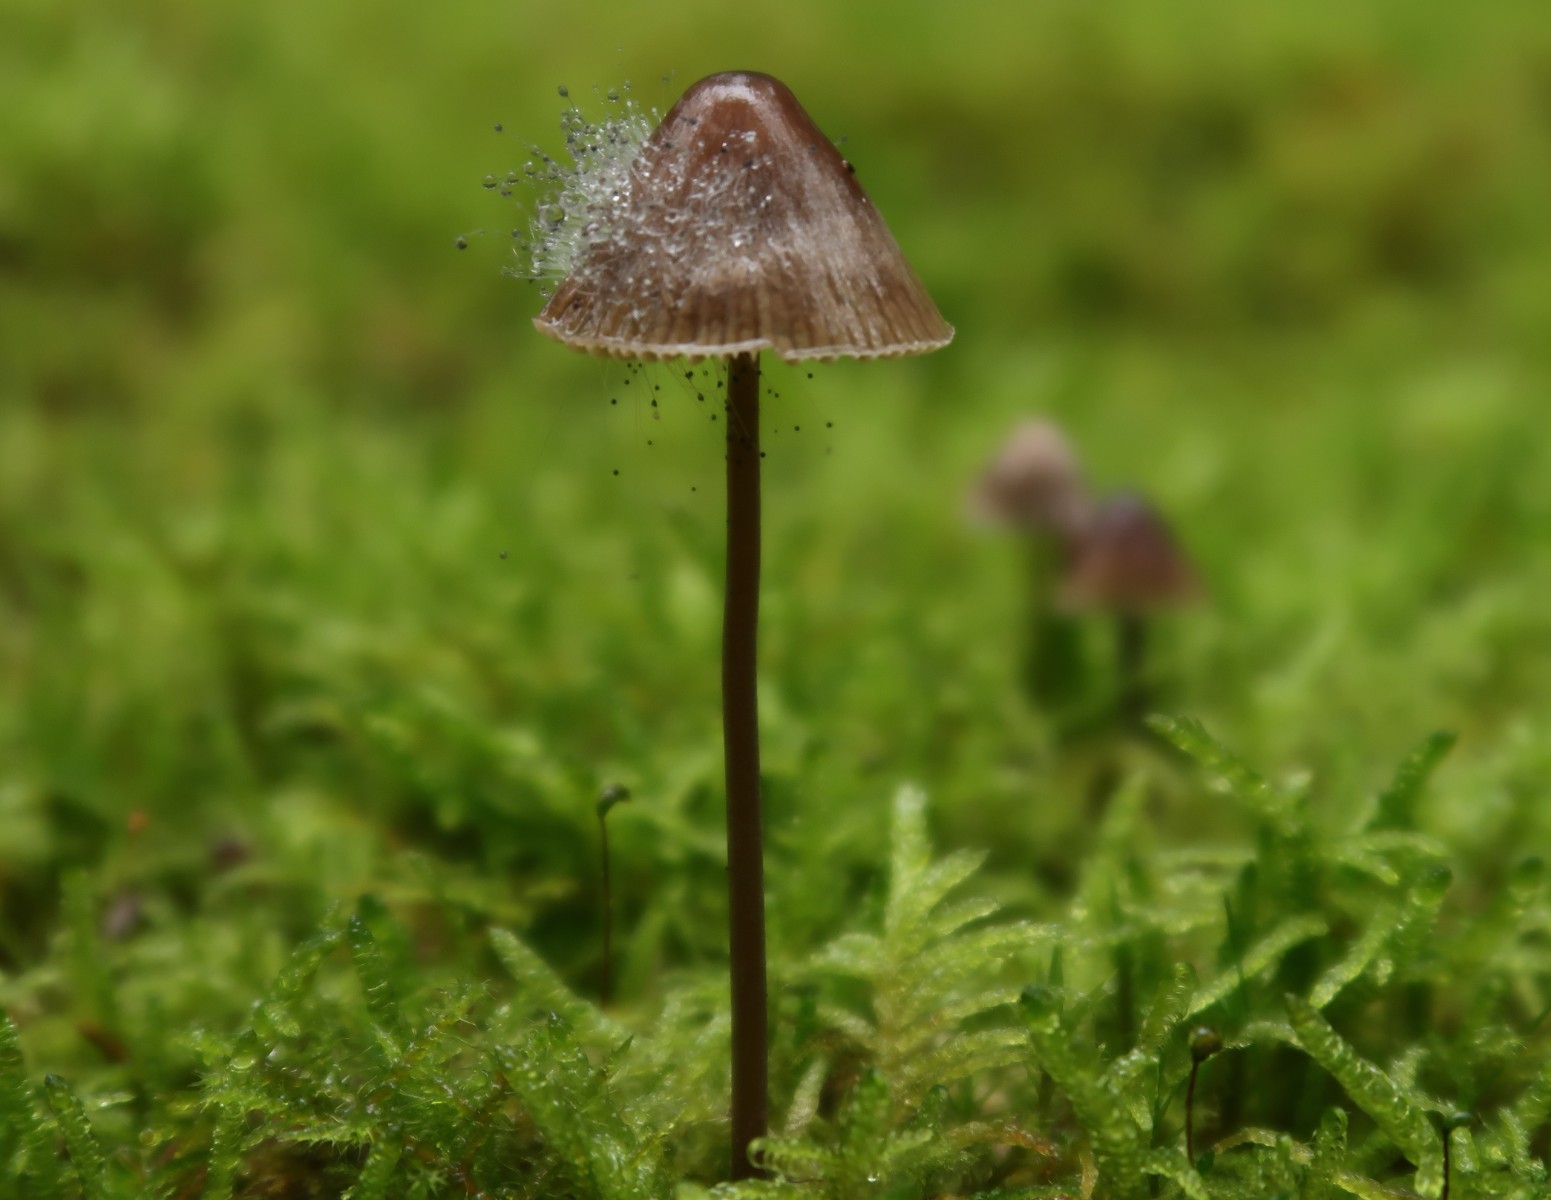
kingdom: Fungi
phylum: Mucoromycota
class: Mucoromycetes
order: Mucorales
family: Phycomycetaceae
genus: Spinellus
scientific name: Spinellus fusiger
